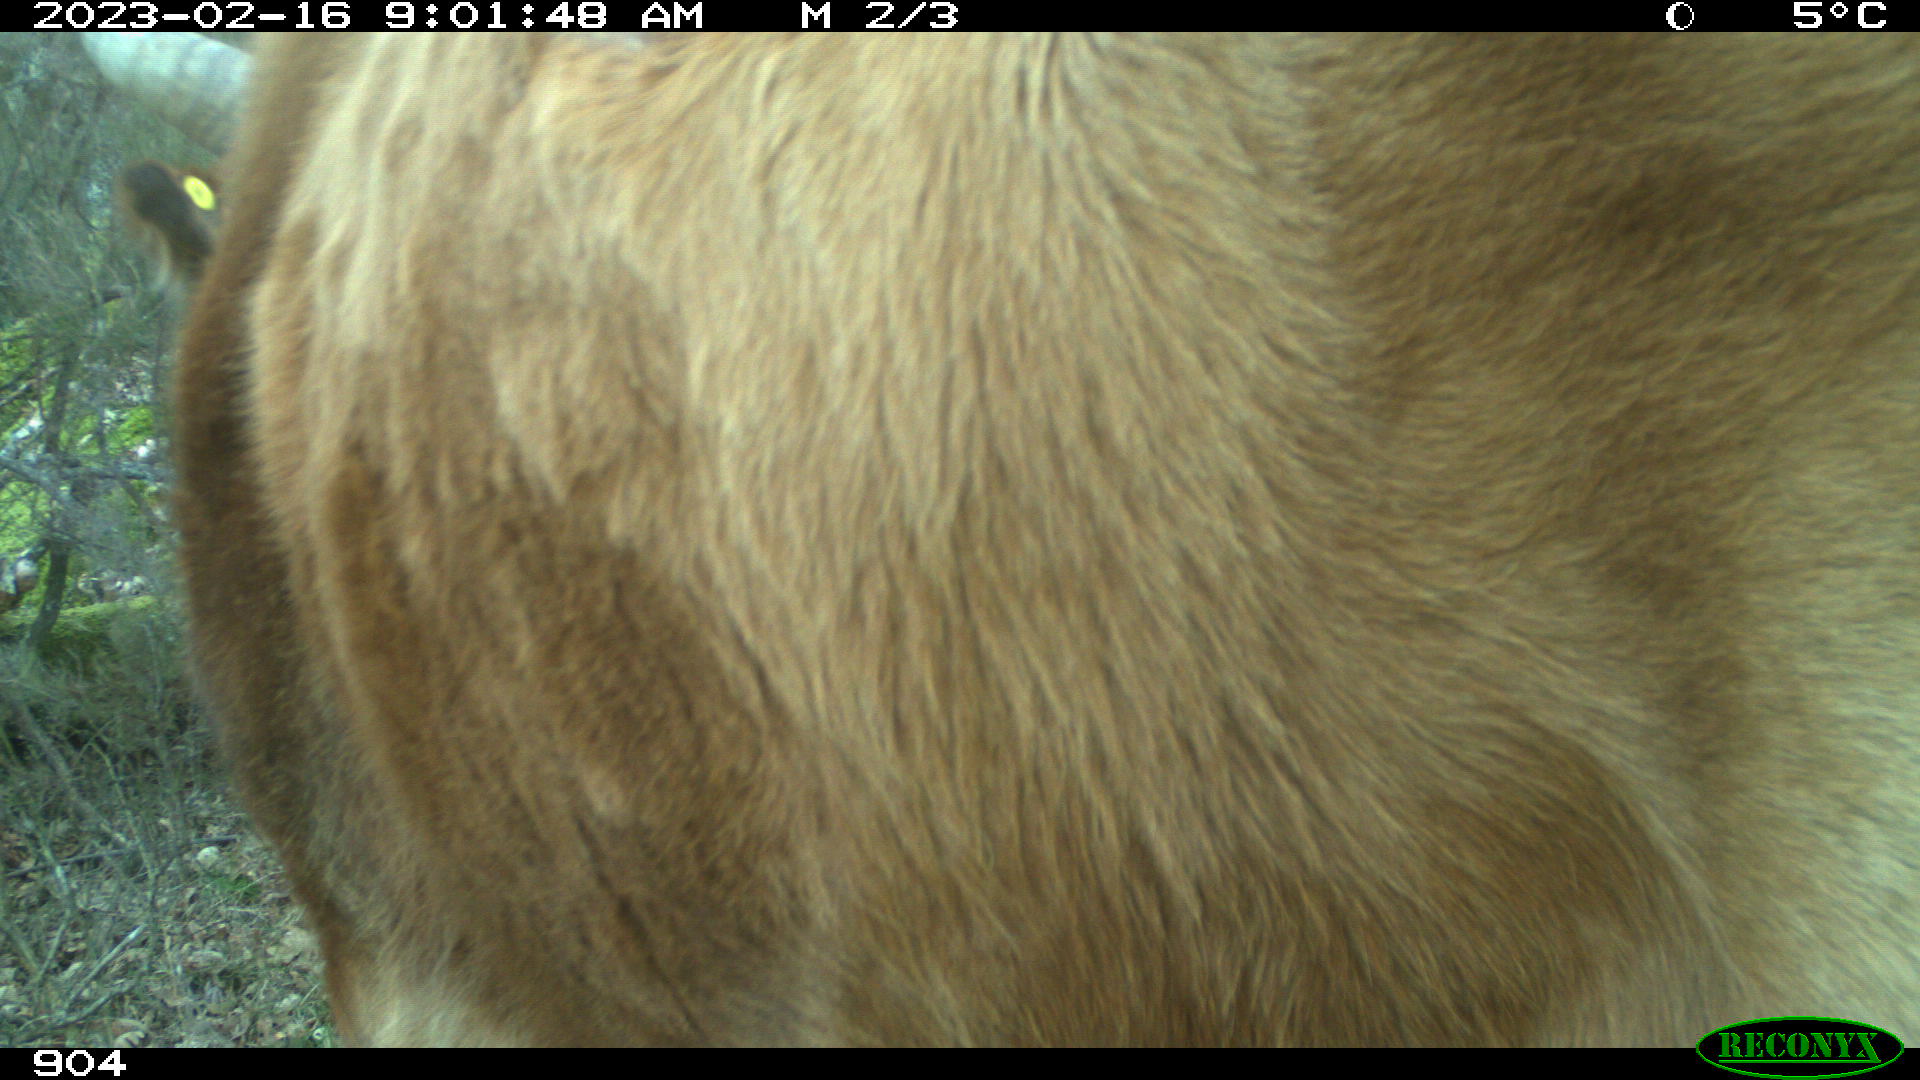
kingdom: Animalia
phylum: Chordata
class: Mammalia
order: Artiodactyla
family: Bovidae
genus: Bos
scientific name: Bos taurus
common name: Domesticated cattle
